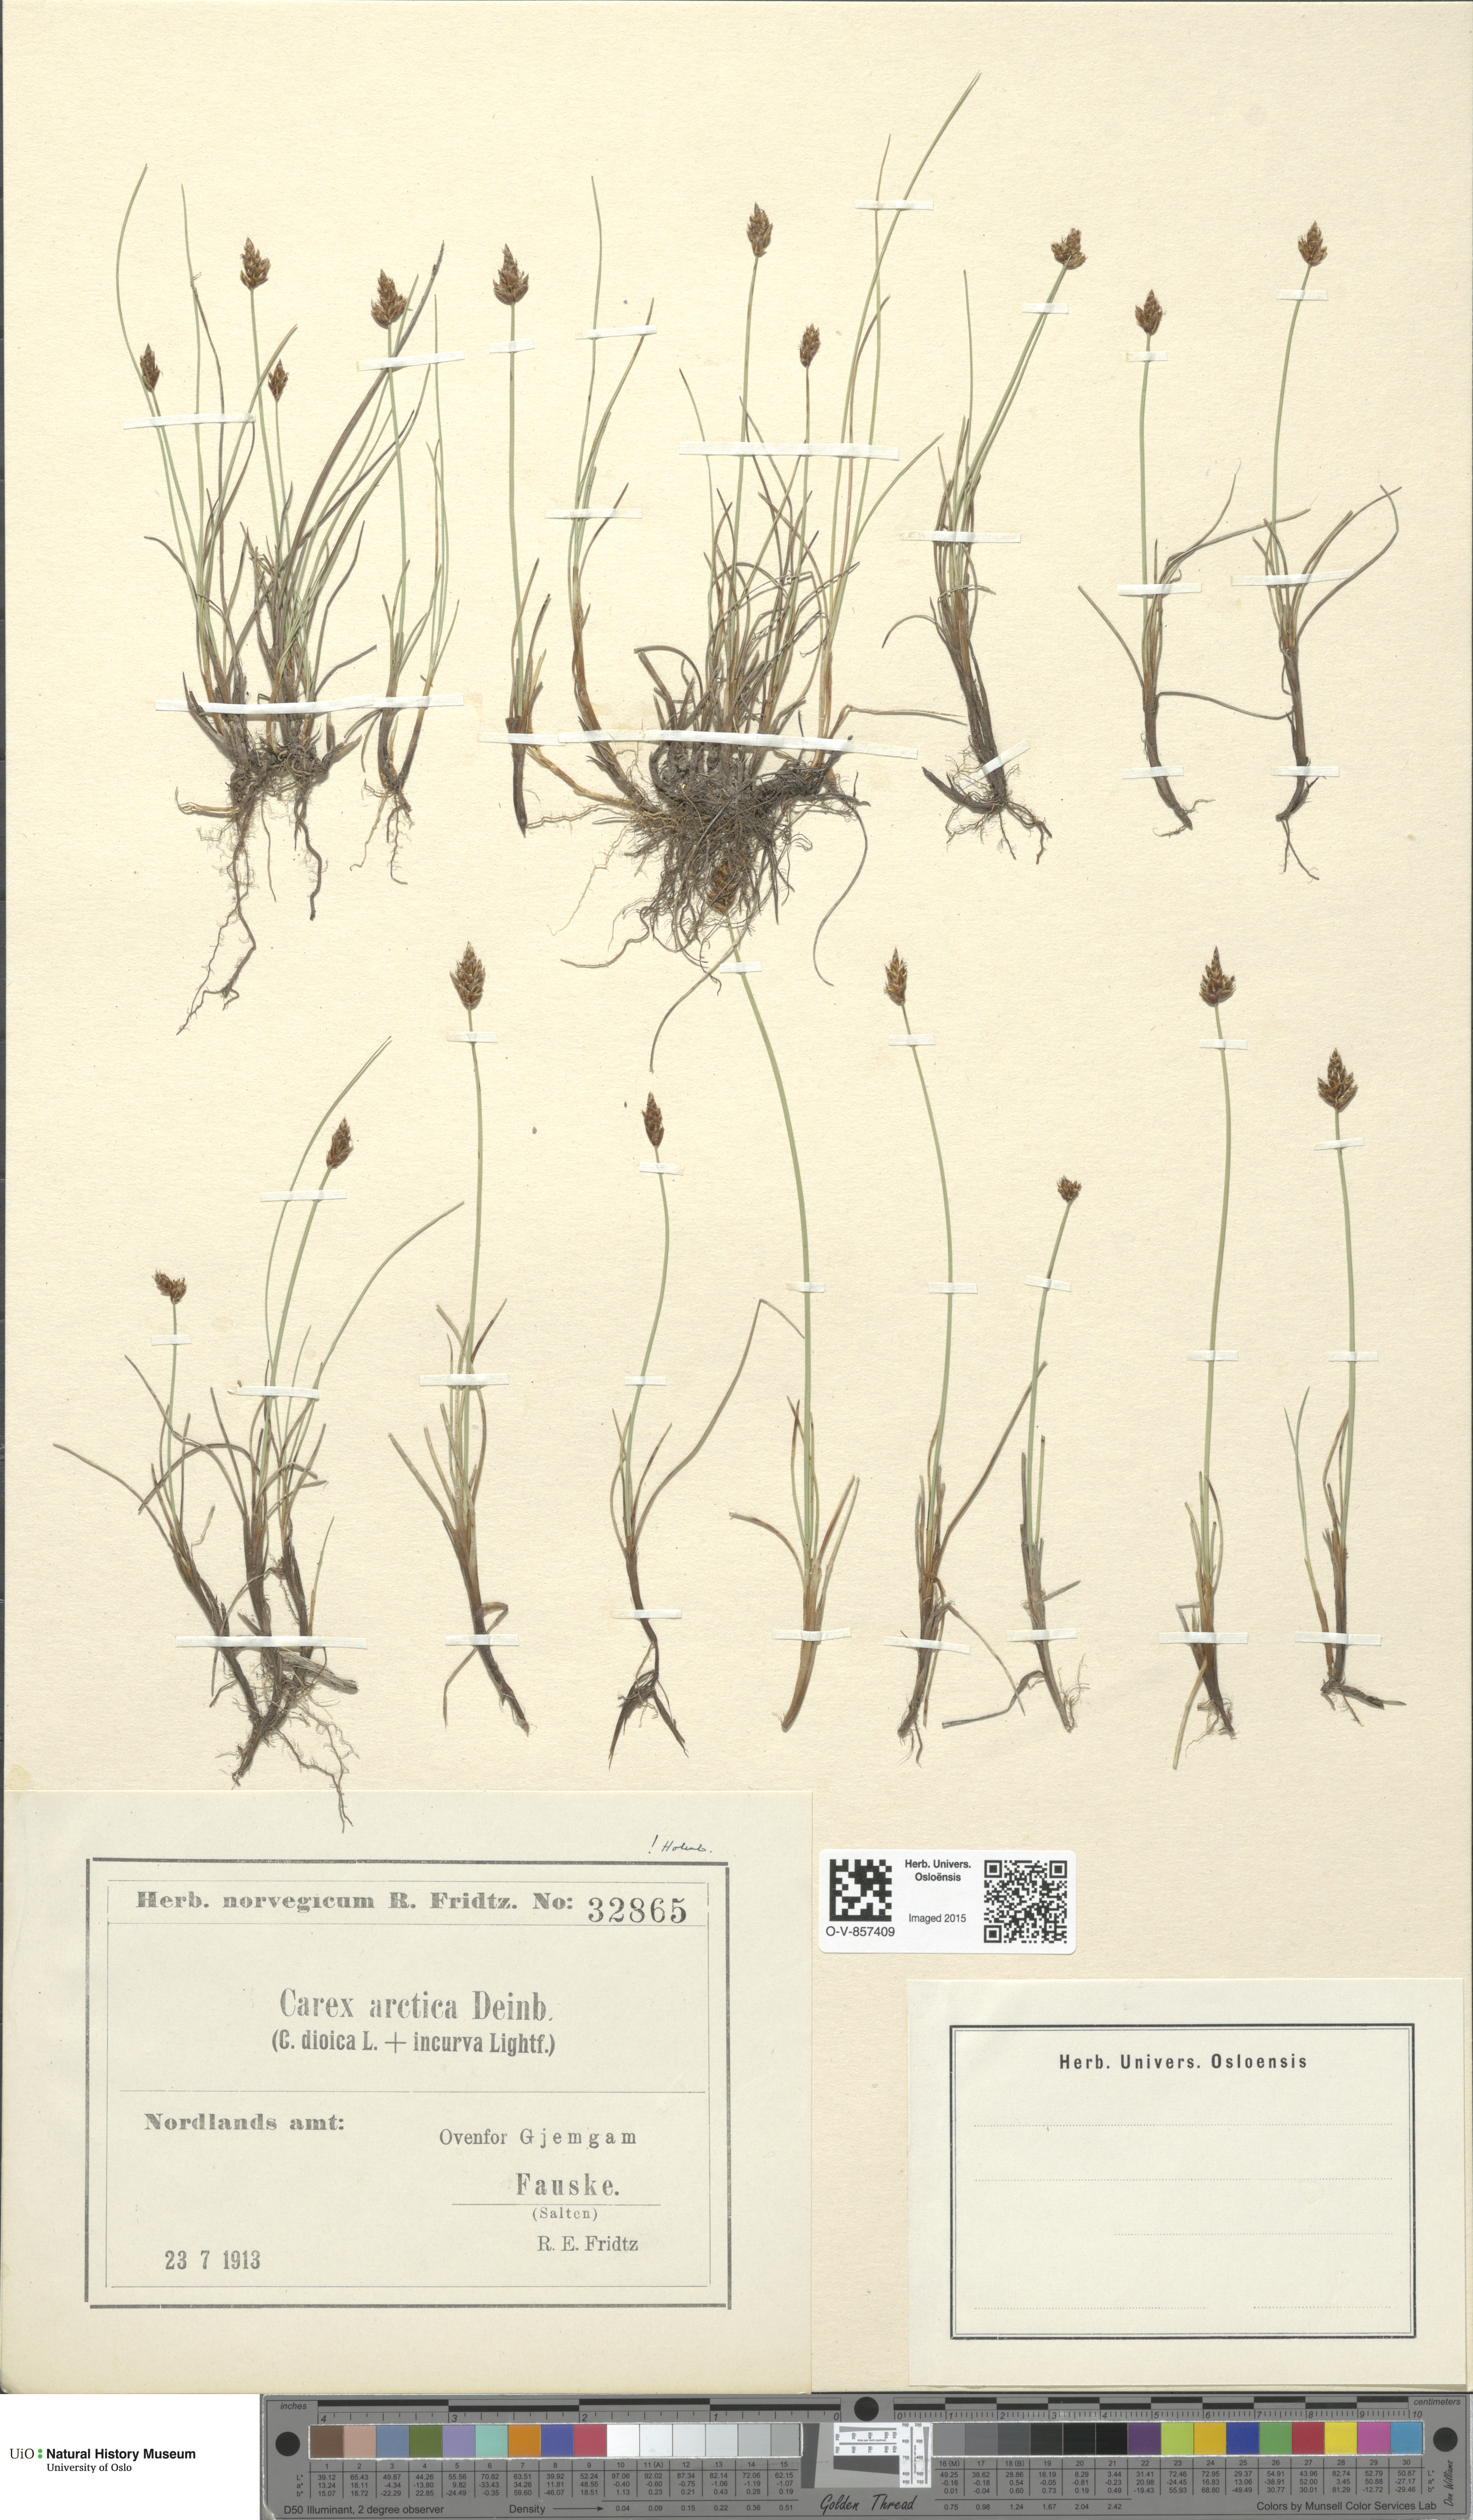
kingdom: Plantae
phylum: Tracheophyta
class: Liliopsida
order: Poales
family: Cyperaceae
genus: Carex
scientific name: Carex
